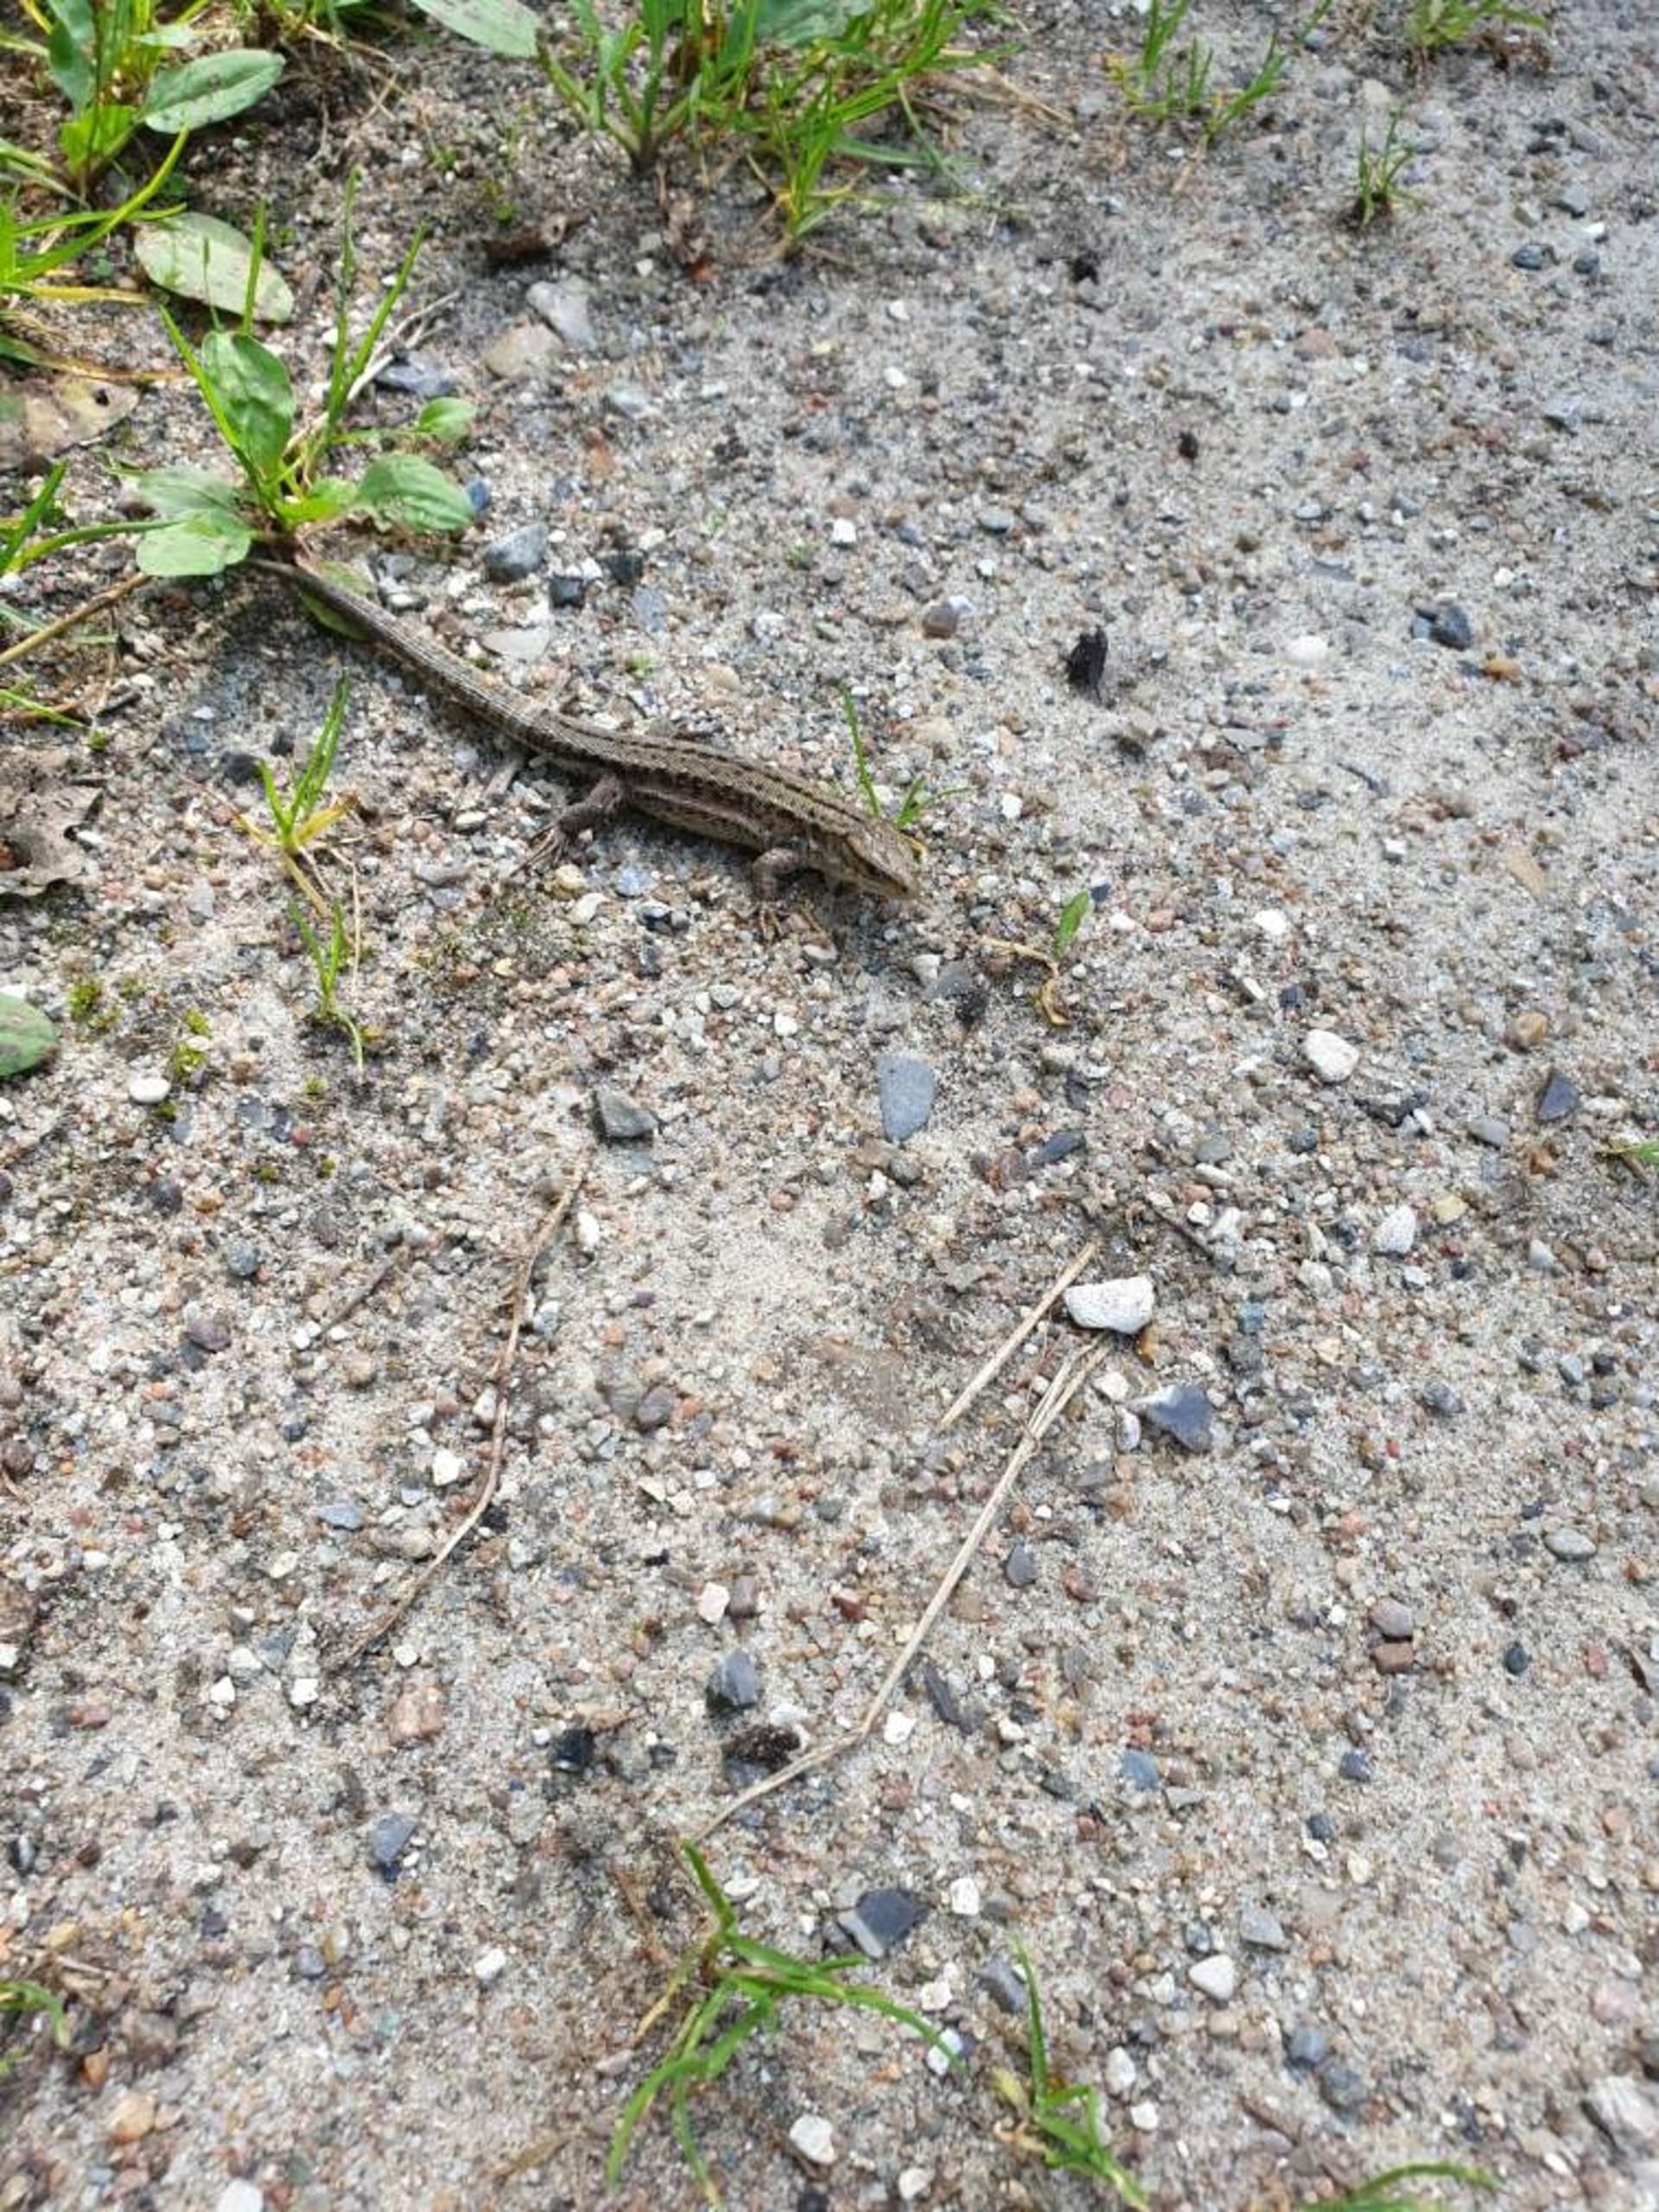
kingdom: Animalia
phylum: Chordata
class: Squamata
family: Lacertidae
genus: Zootoca
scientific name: Zootoca vivipara
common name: Skovfirben
